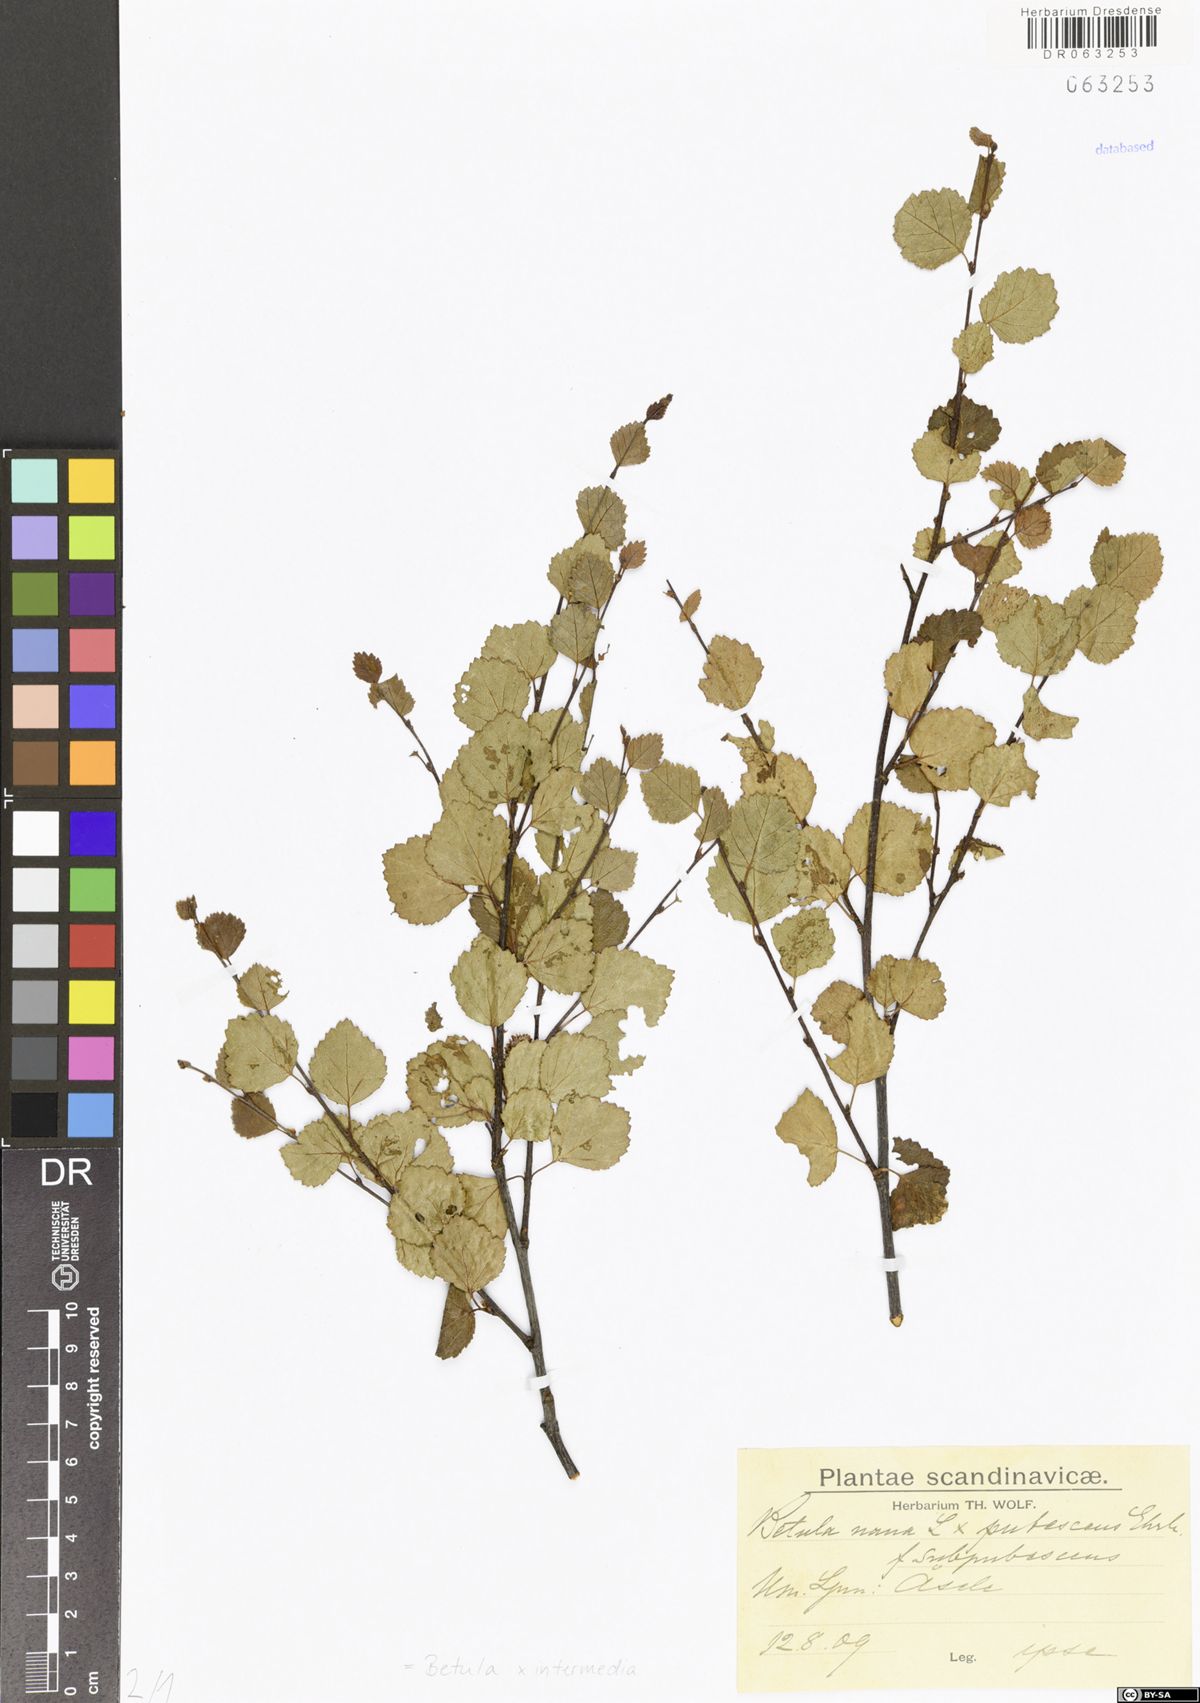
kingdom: Plantae
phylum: Tracheophyta
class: Magnoliopsida
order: Fagales
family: Betulaceae
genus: Betula
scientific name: Betula intermedia
